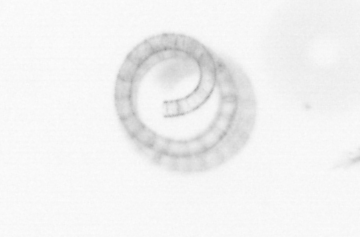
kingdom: Chromista
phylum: Ochrophyta
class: Bacillariophyceae
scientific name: Bacillariophyceae
